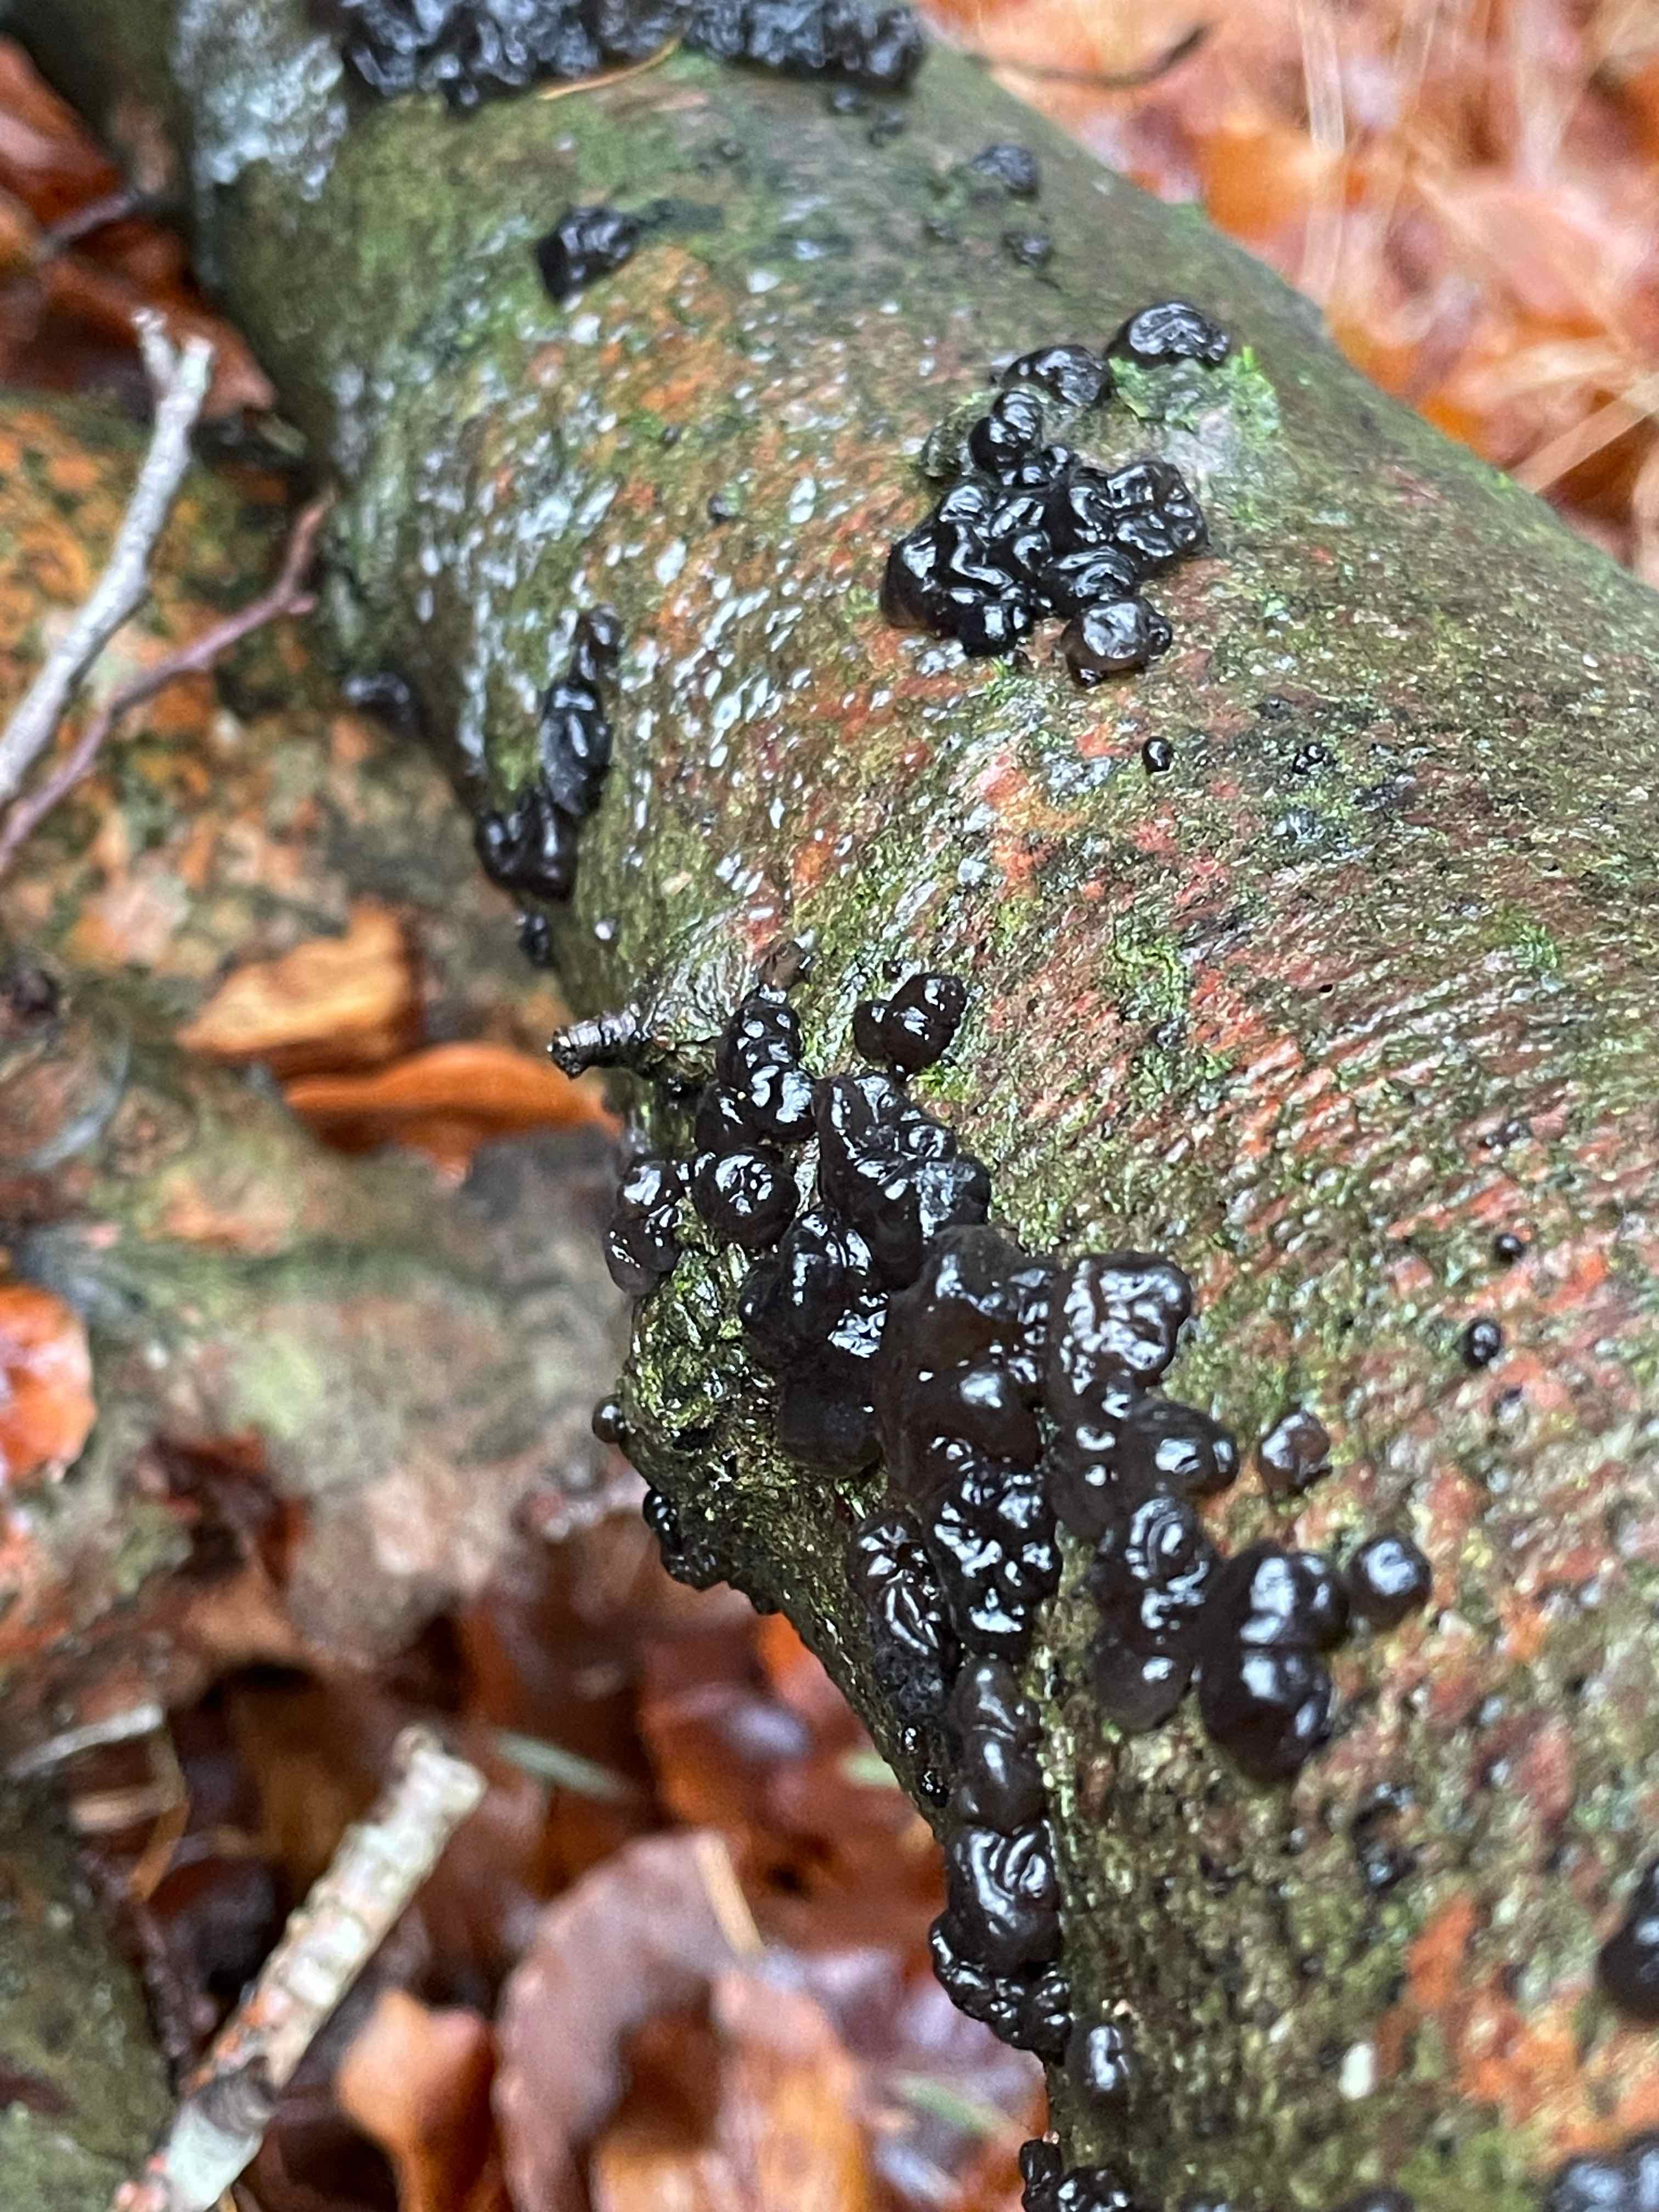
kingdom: Fungi
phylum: Basidiomycota
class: Agaricomycetes
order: Auriculariales
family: Auriculariaceae
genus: Exidia
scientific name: Exidia nigricans
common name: almindelig bævretop
